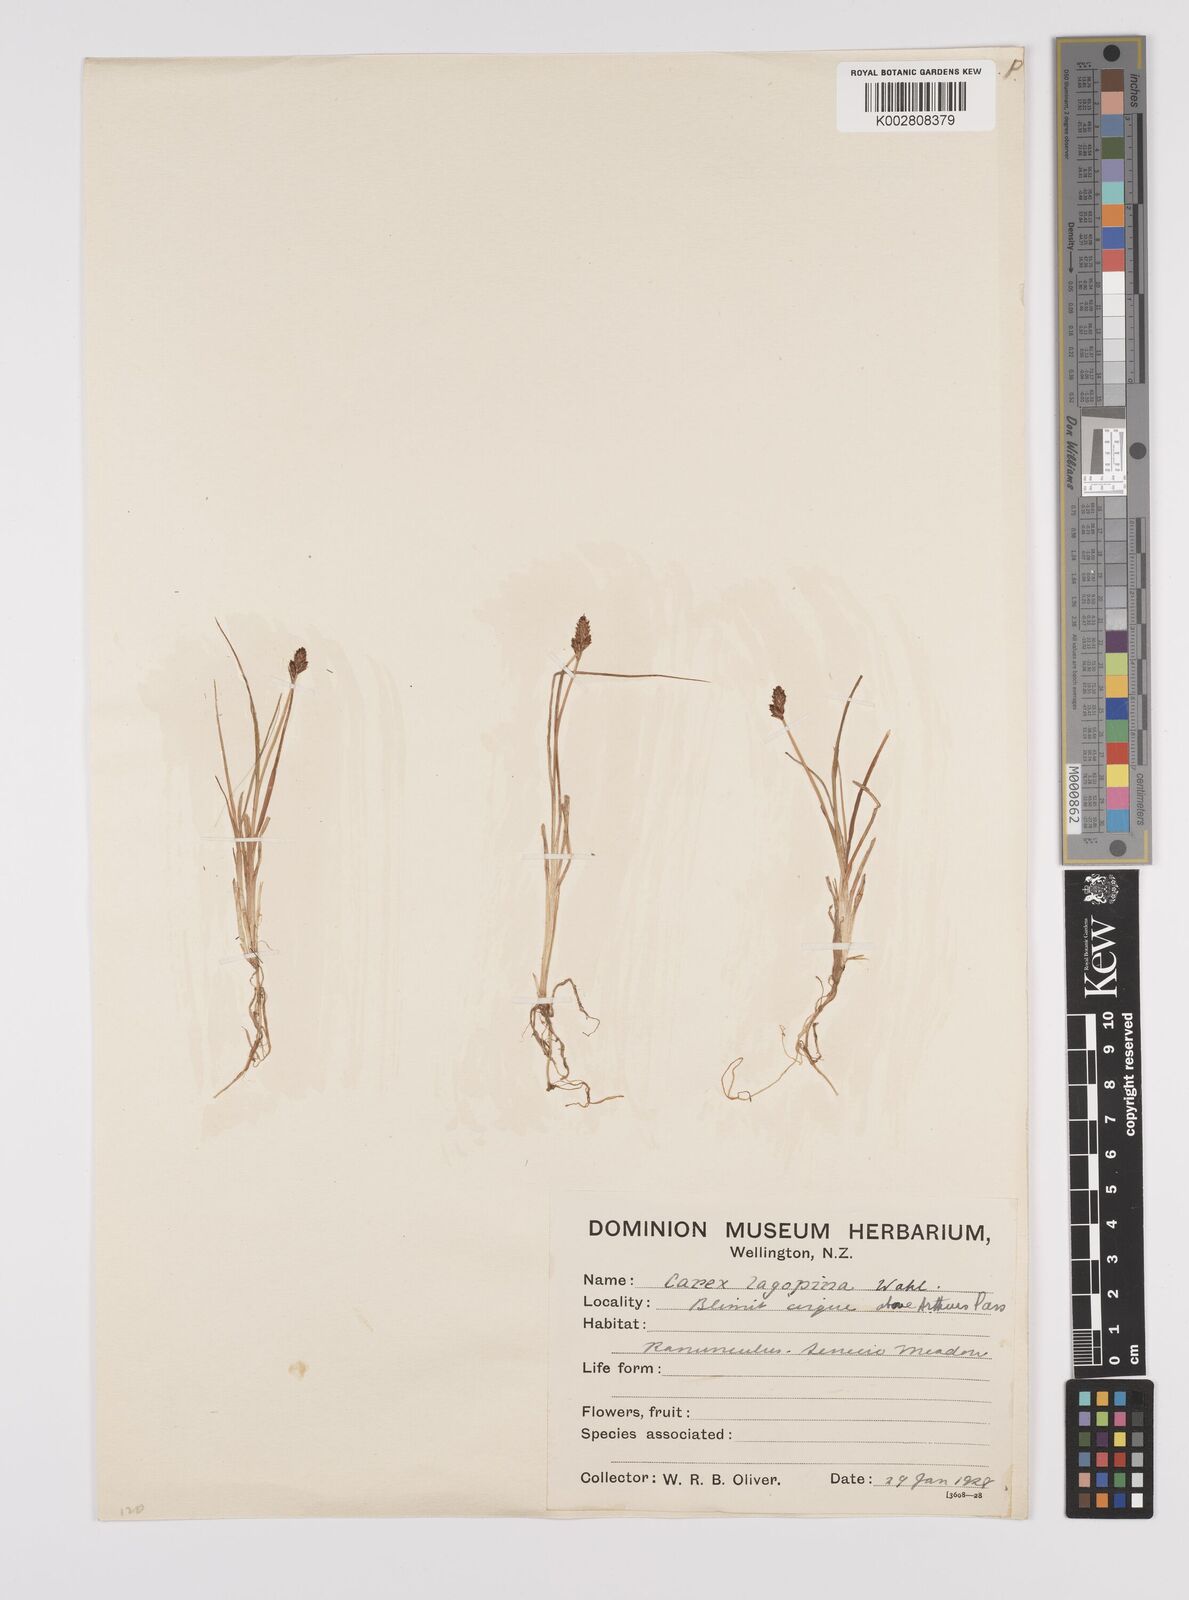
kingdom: Plantae
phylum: Tracheophyta
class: Liliopsida
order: Poales
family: Cyperaceae
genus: Carex
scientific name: Carex lachenalii
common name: Hare's-foot sedge
